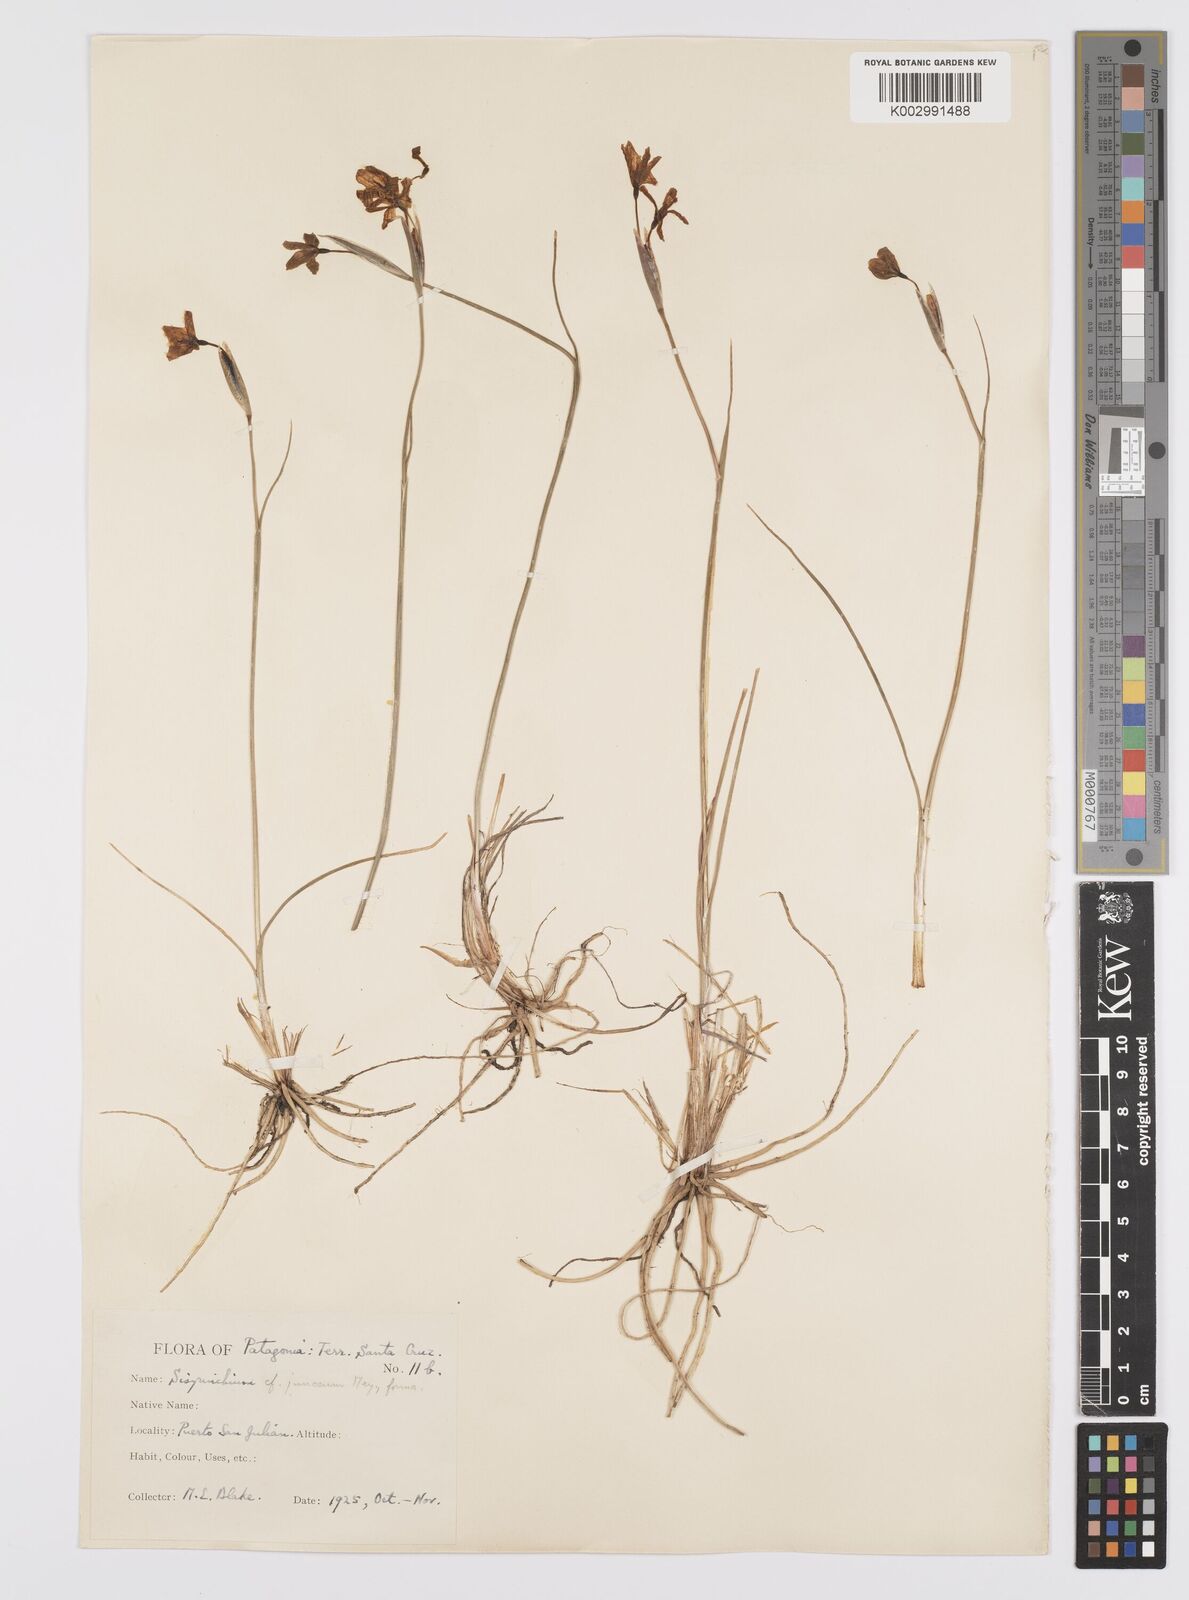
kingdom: Plantae
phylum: Tracheophyta
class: Liliopsida
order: Asparagales
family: Iridaceae
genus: Olsynium
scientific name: Olsynium
